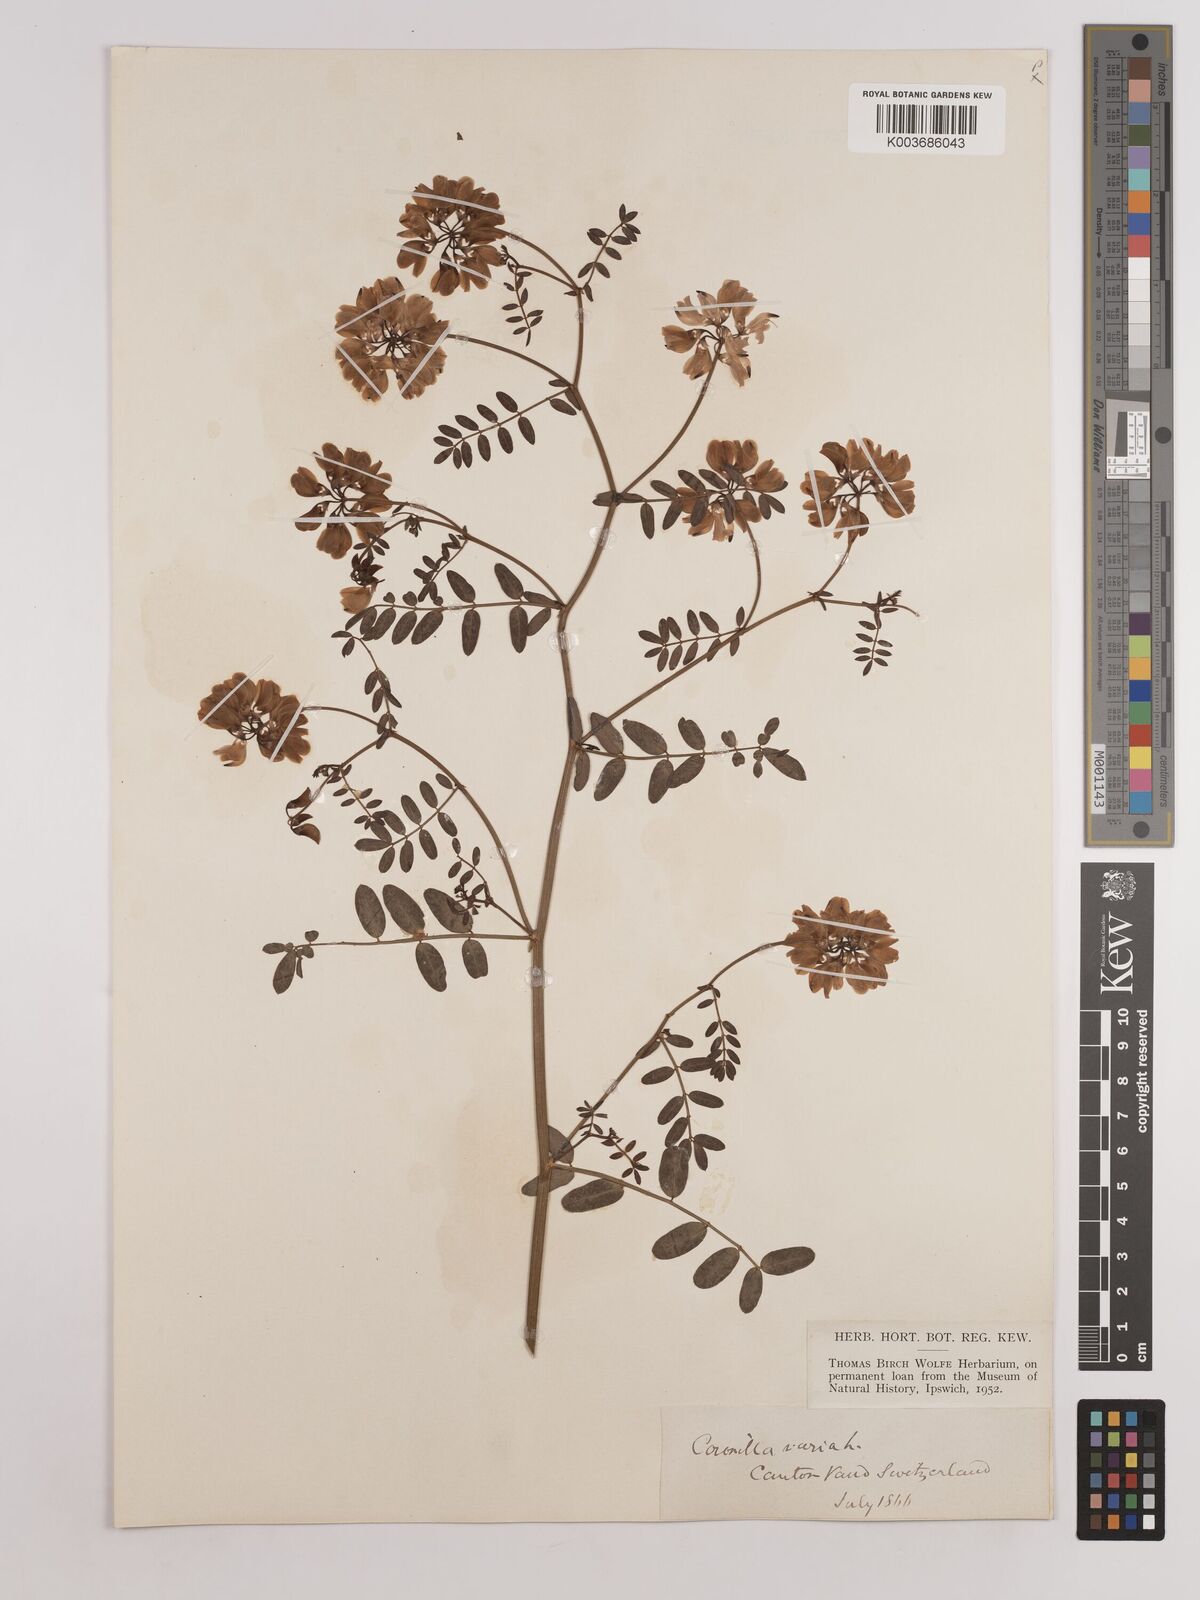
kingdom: Plantae
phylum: Tracheophyta
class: Magnoliopsida
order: Fabales
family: Fabaceae
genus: Coronilla
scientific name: Coronilla varia
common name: Crownvetch
